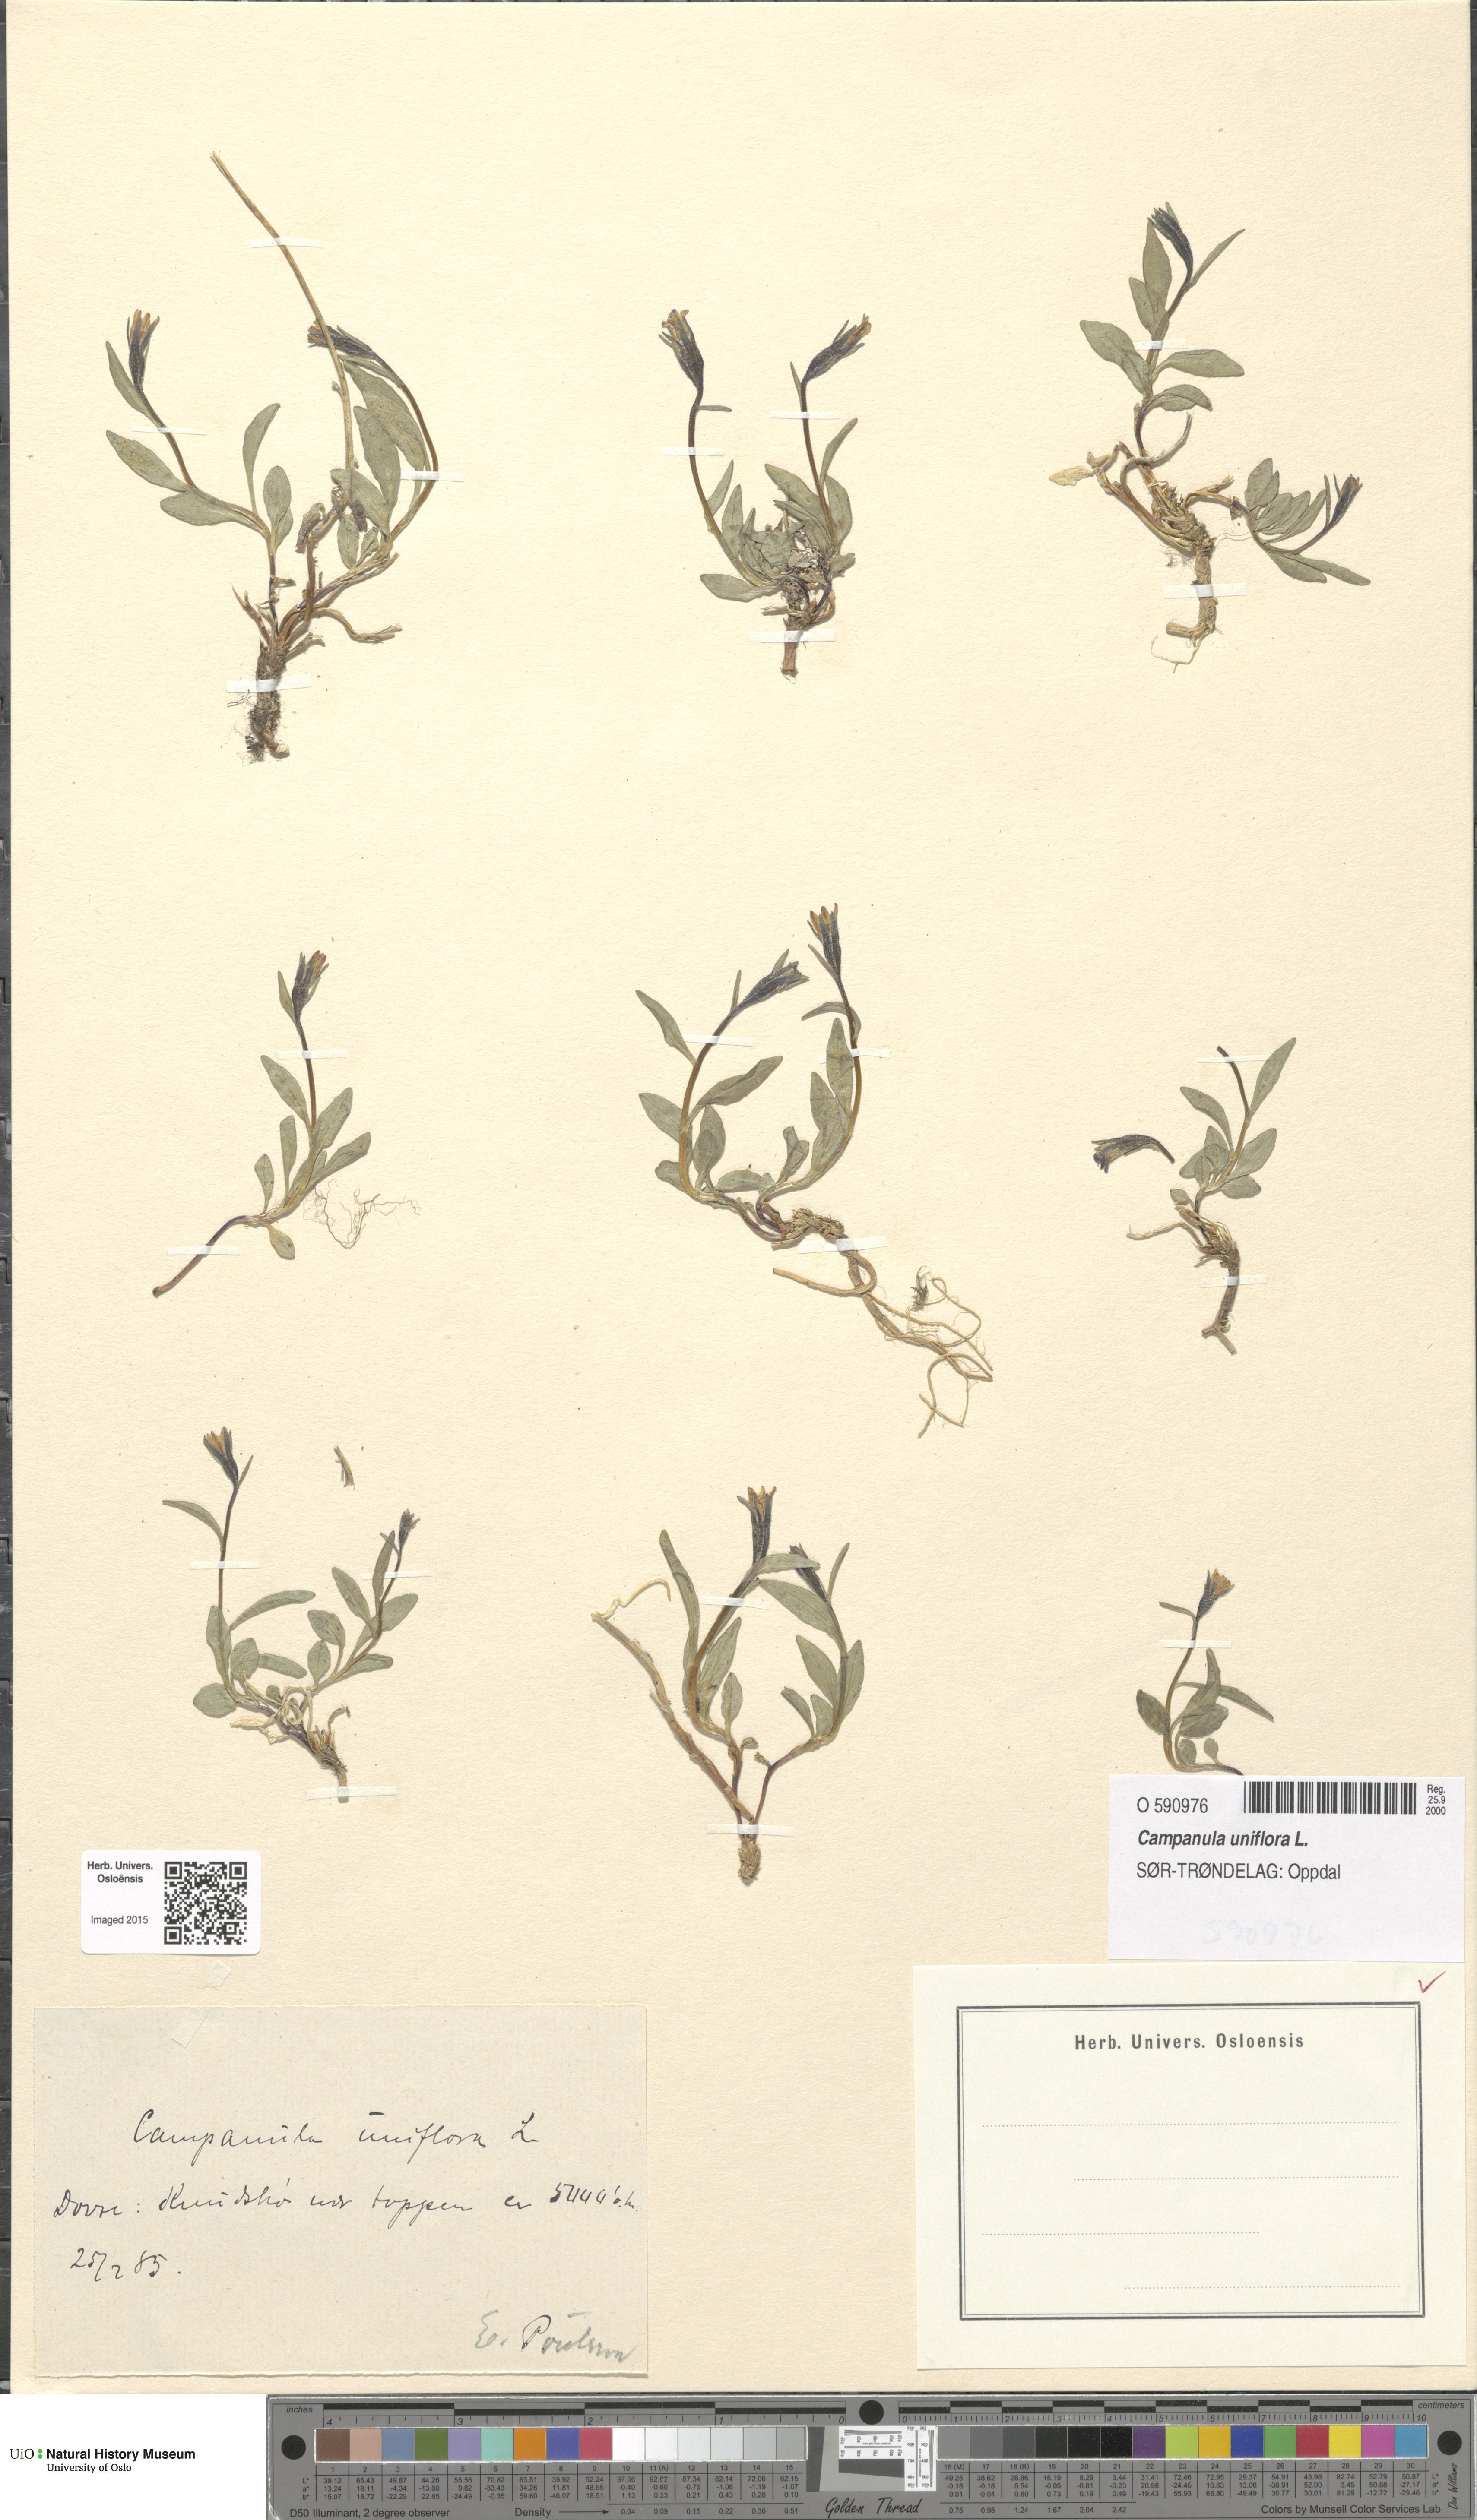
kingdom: Plantae
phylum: Tracheophyta
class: Magnoliopsida
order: Asterales
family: Campanulaceae
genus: Melanocalyx
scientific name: Melanocalyx uniflora
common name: Alpine harebell
